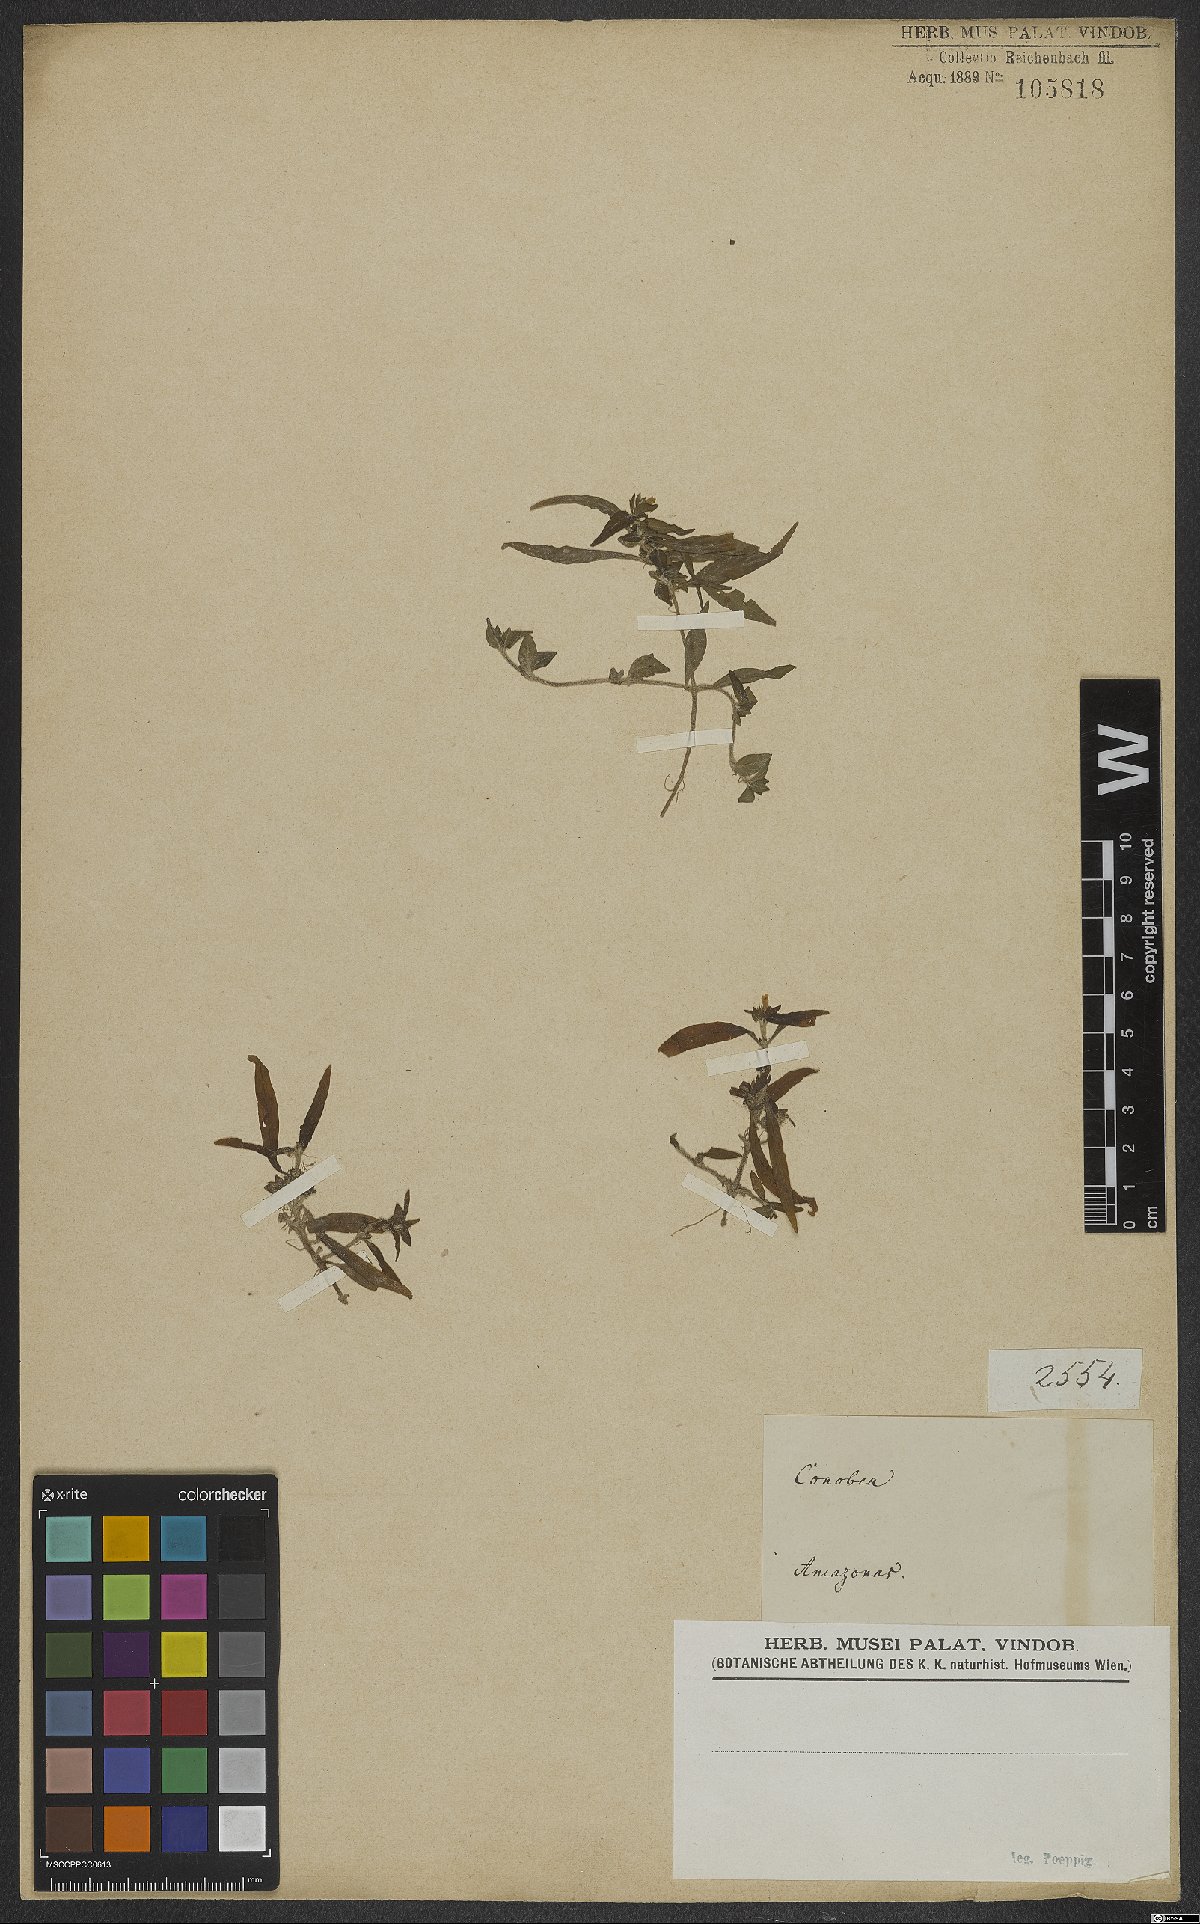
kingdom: Plantae
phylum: Tracheophyta
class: Magnoliopsida
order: Lamiales
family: Plantaginaceae
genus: Conobea
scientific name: Conobea
